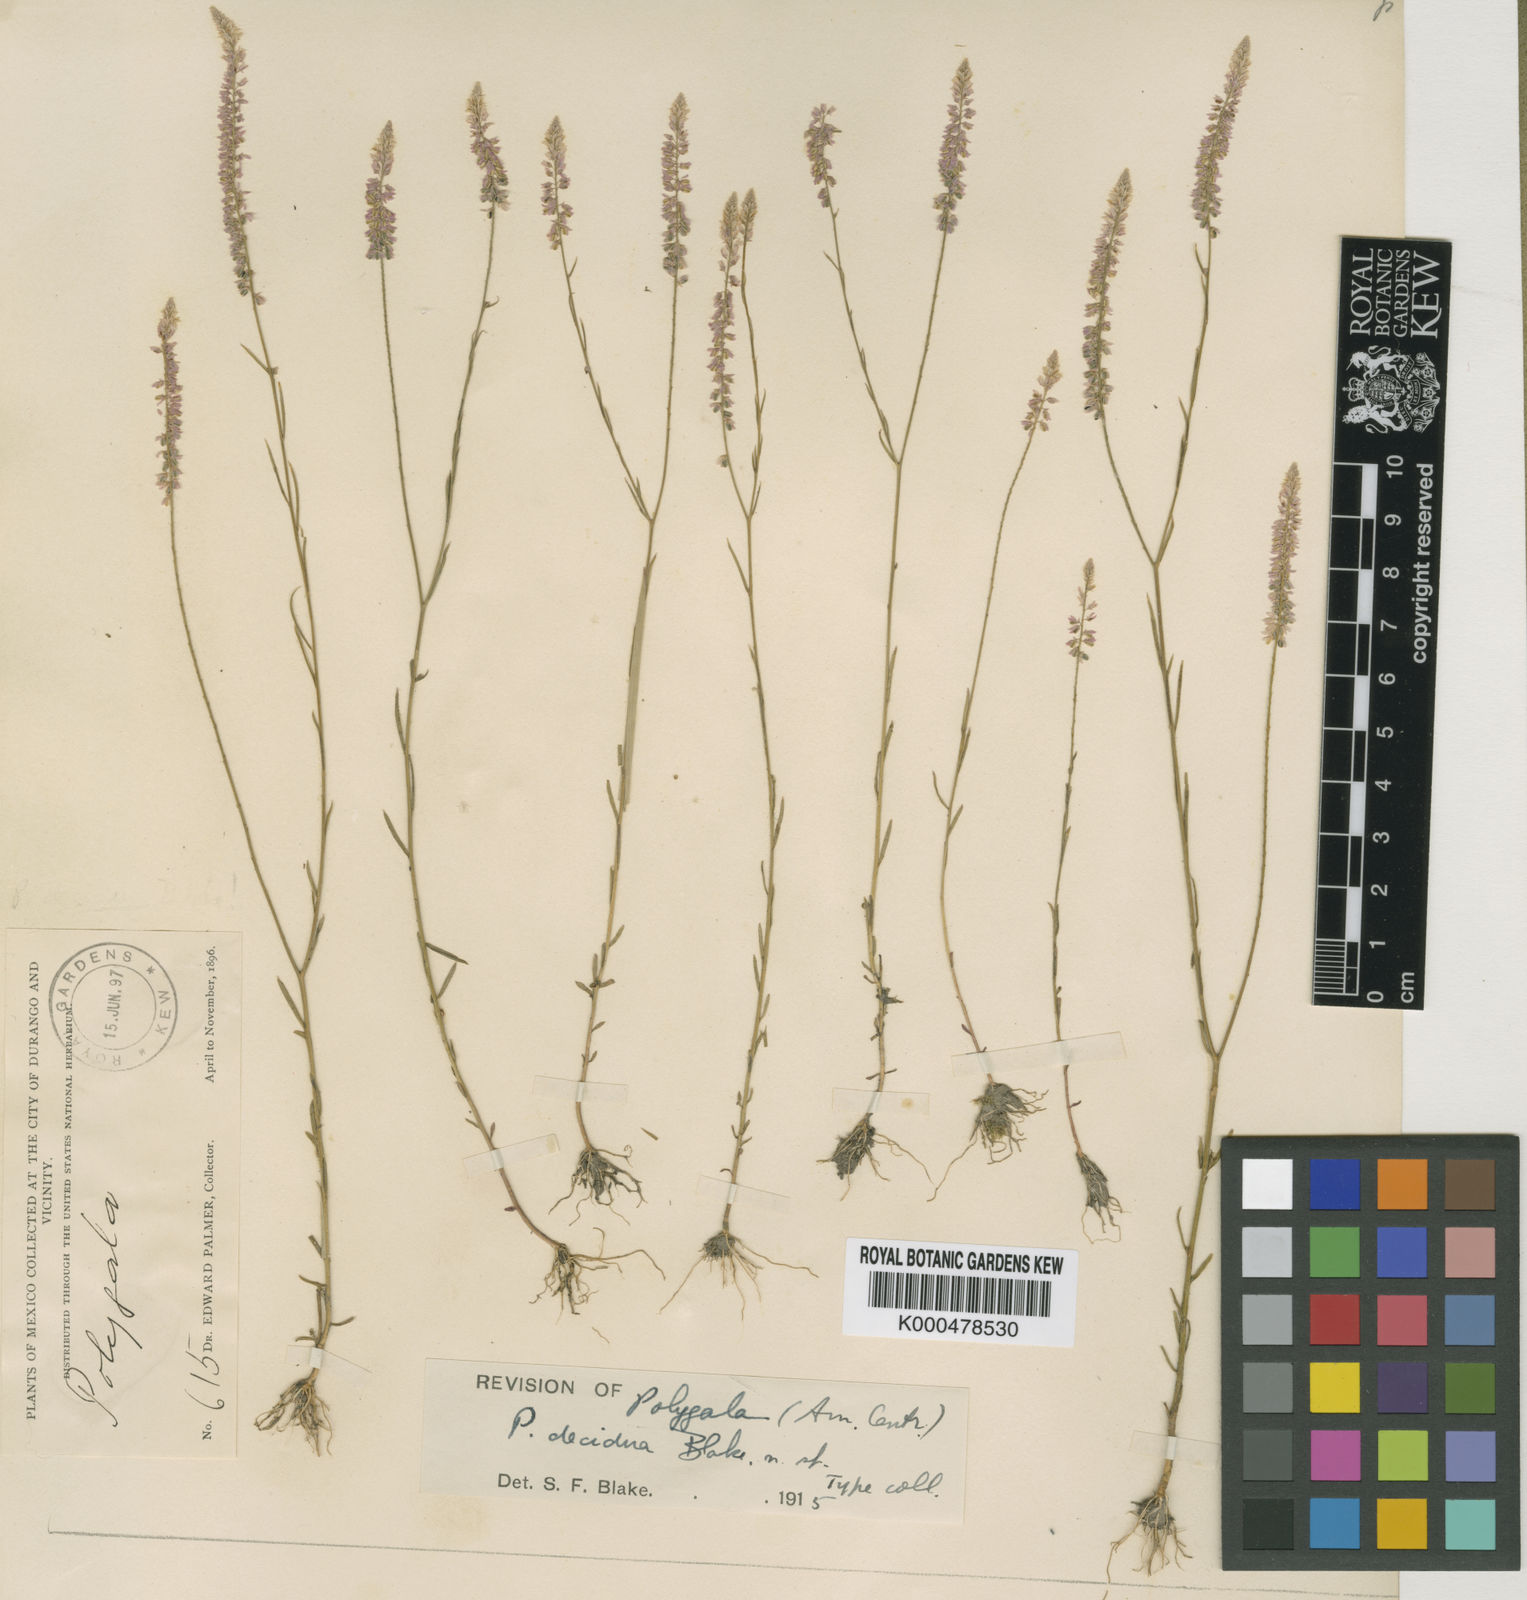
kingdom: Plantae
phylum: Tracheophyta
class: Magnoliopsida
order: Fabales
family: Polygalaceae
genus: Rhinotropis
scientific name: Rhinotropis cornuta
